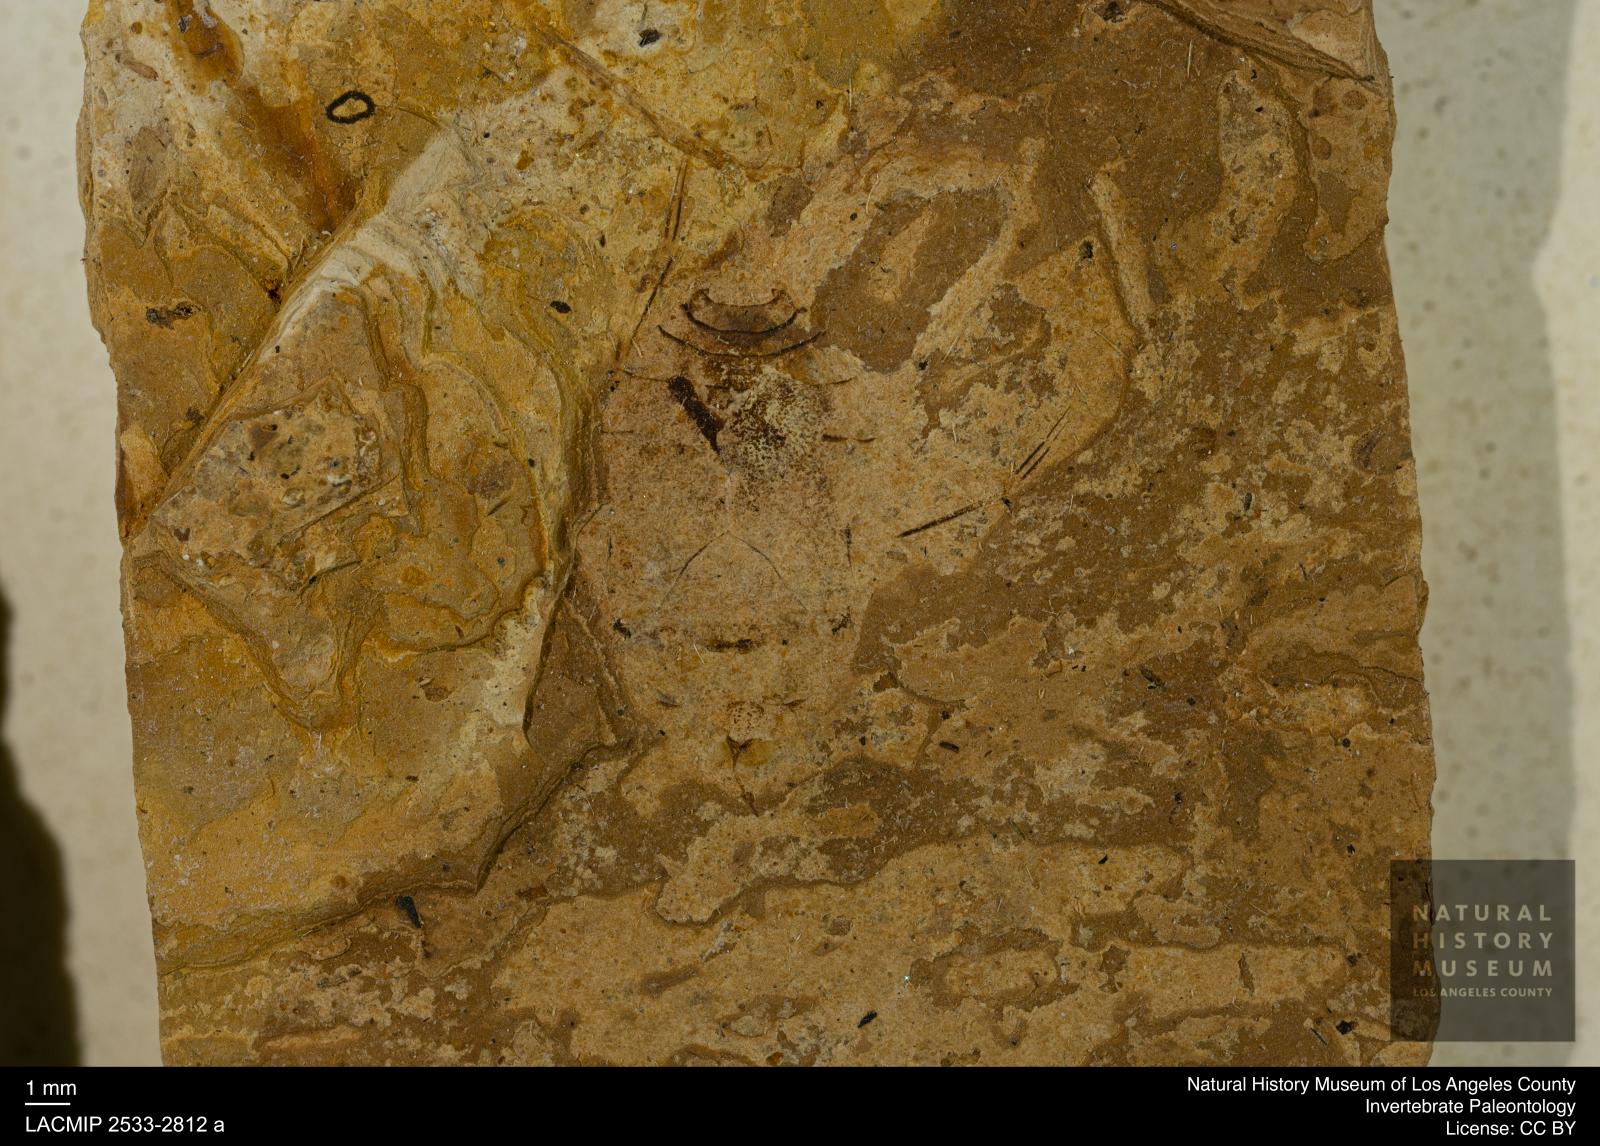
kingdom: Animalia
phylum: Arthropoda
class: Insecta
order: Hemiptera
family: Naucoridae
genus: Naucoris
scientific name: Naucoris rottensis
